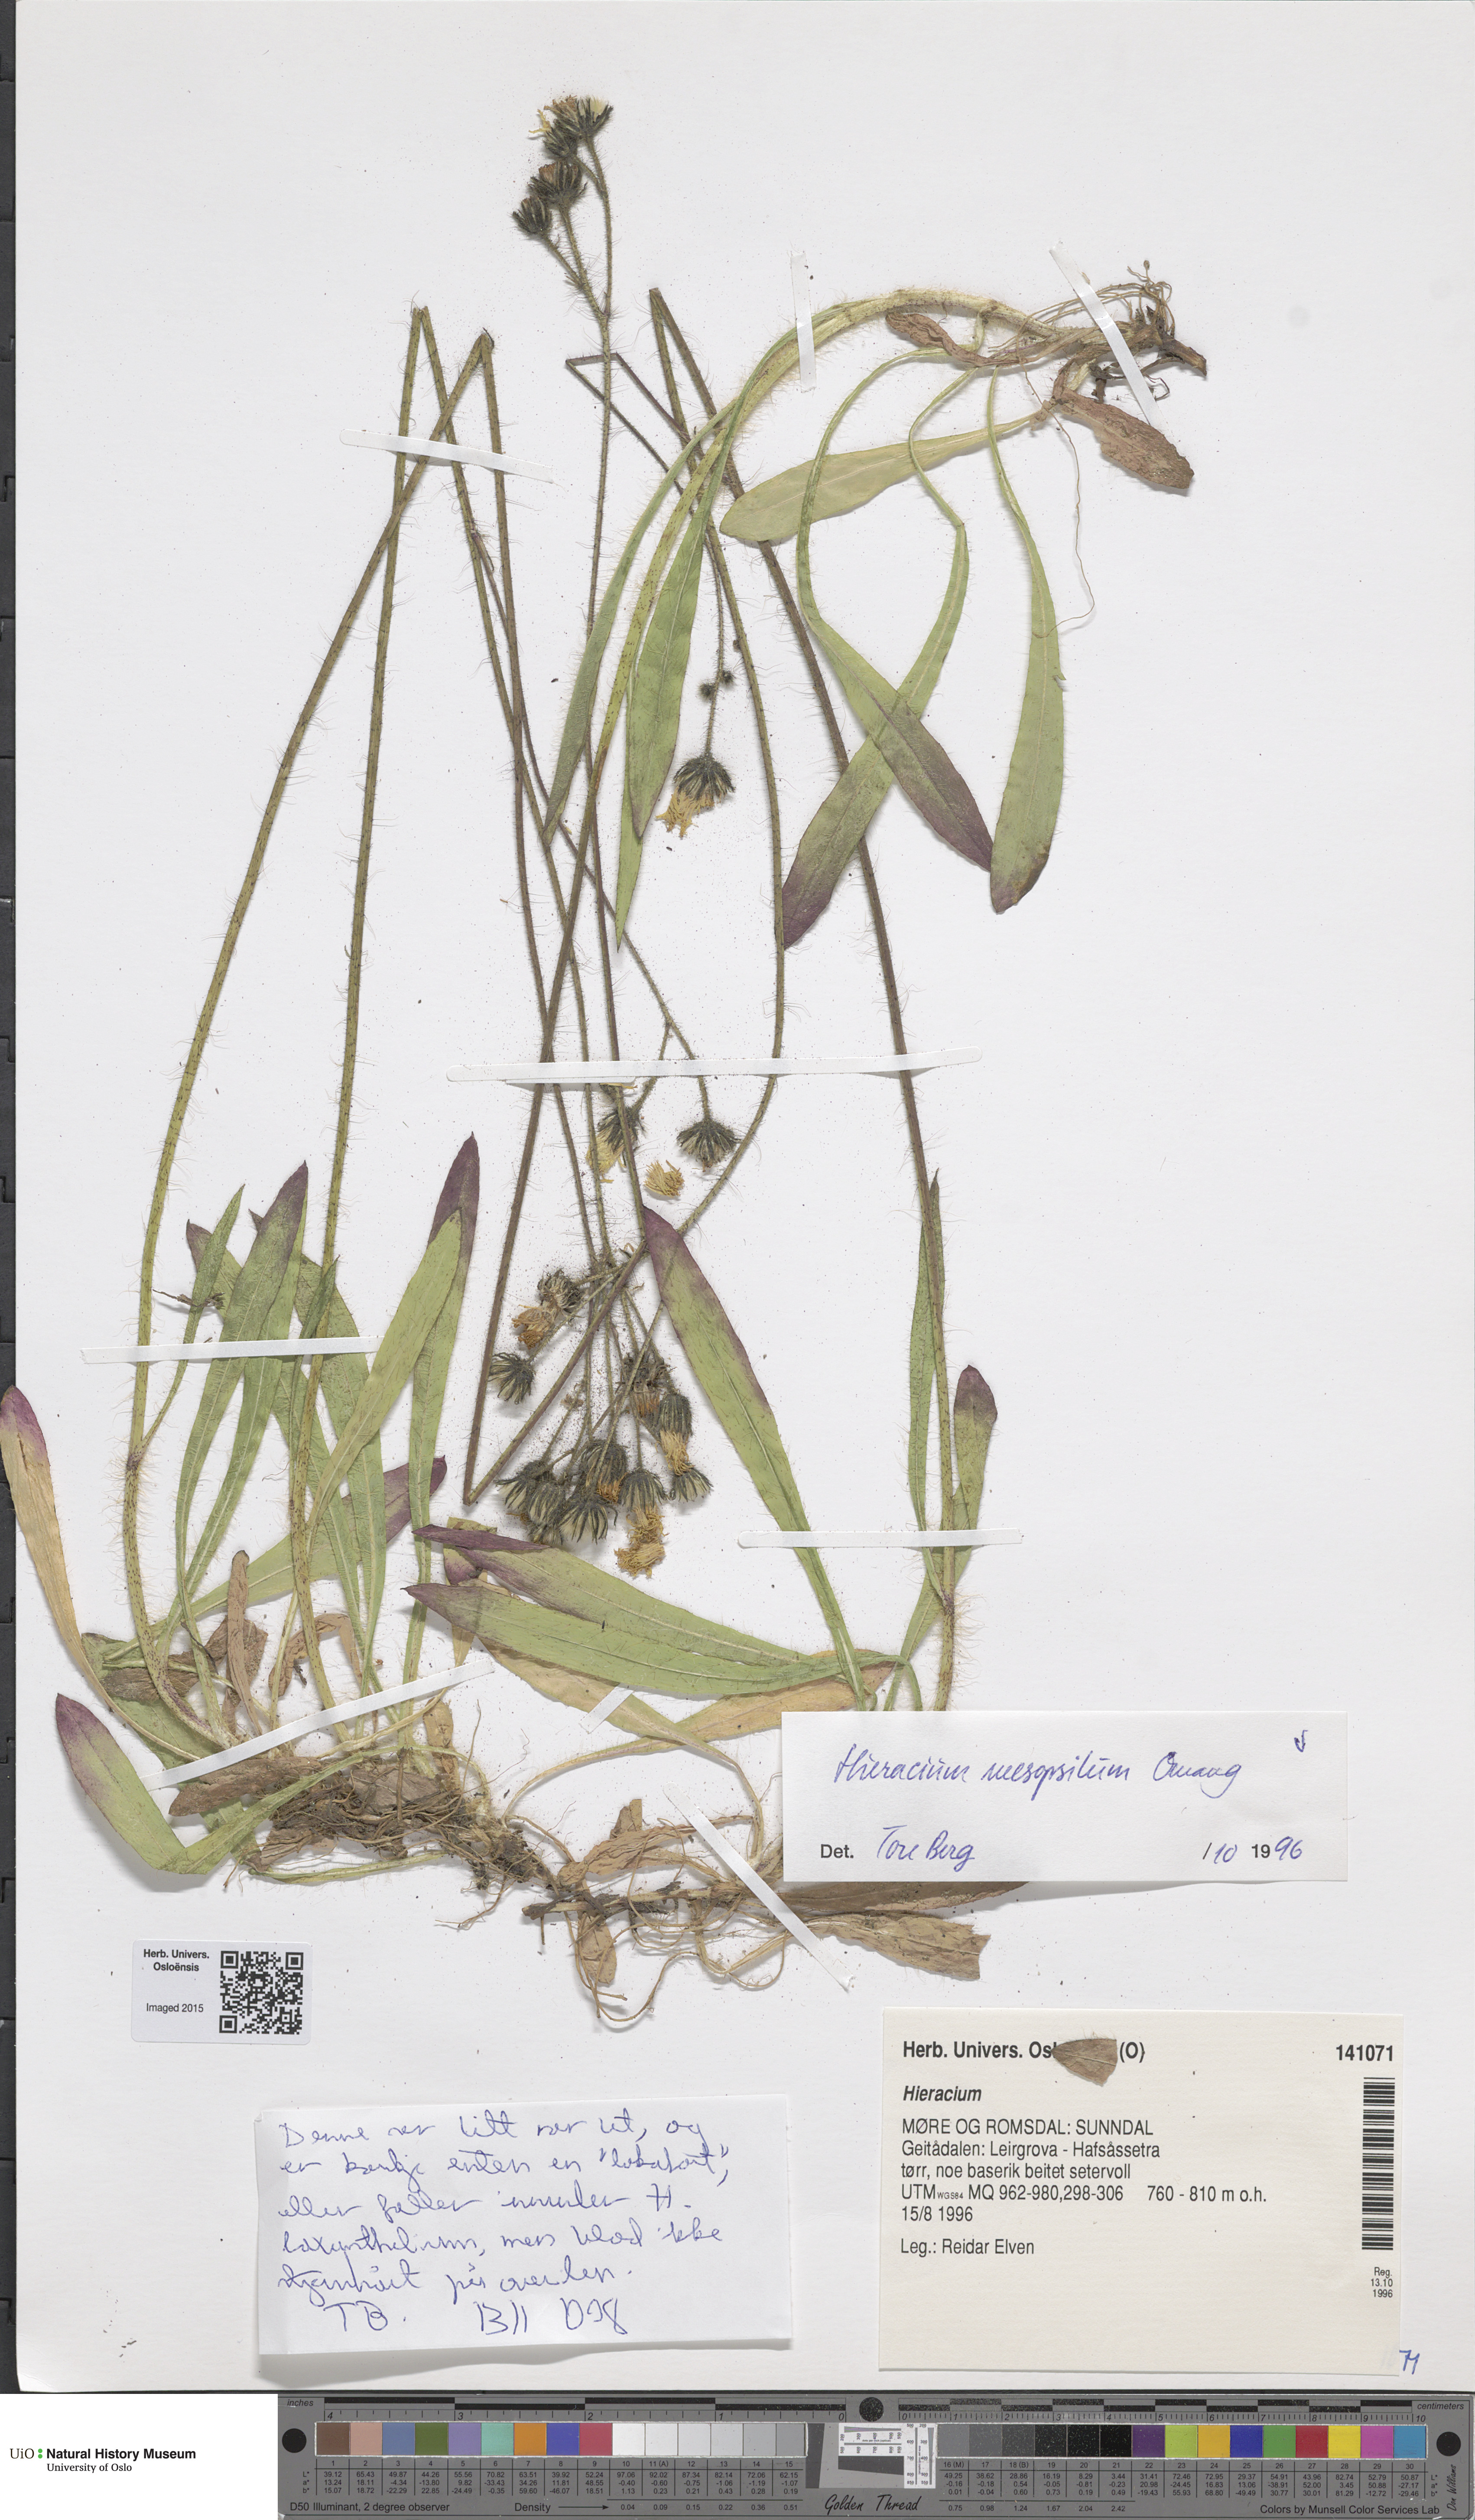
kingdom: Plantae
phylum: Tracheophyta
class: Magnoliopsida
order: Asterales
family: Asteraceae
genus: Pilosella
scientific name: Pilosella dubia
